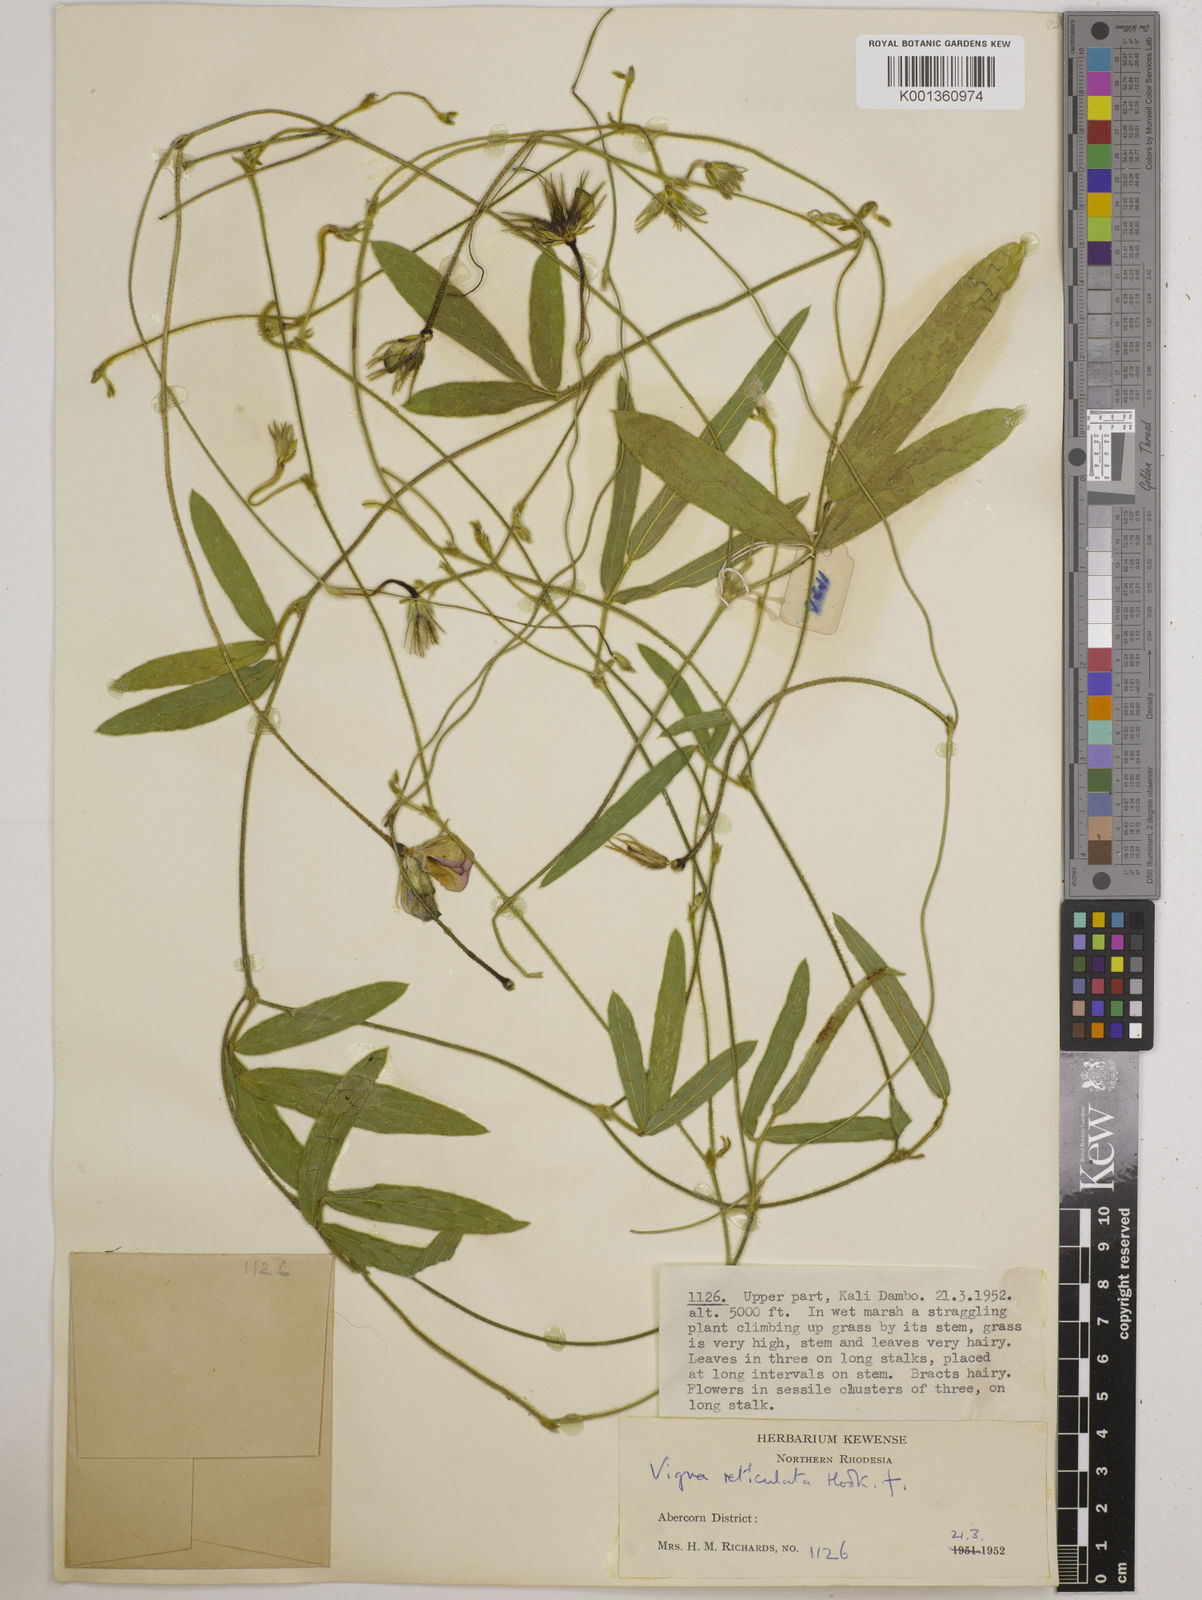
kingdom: Plantae
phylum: Tracheophyta
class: Magnoliopsida
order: Fabales
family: Fabaceae
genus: Vigna
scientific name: Vigna reticulata
